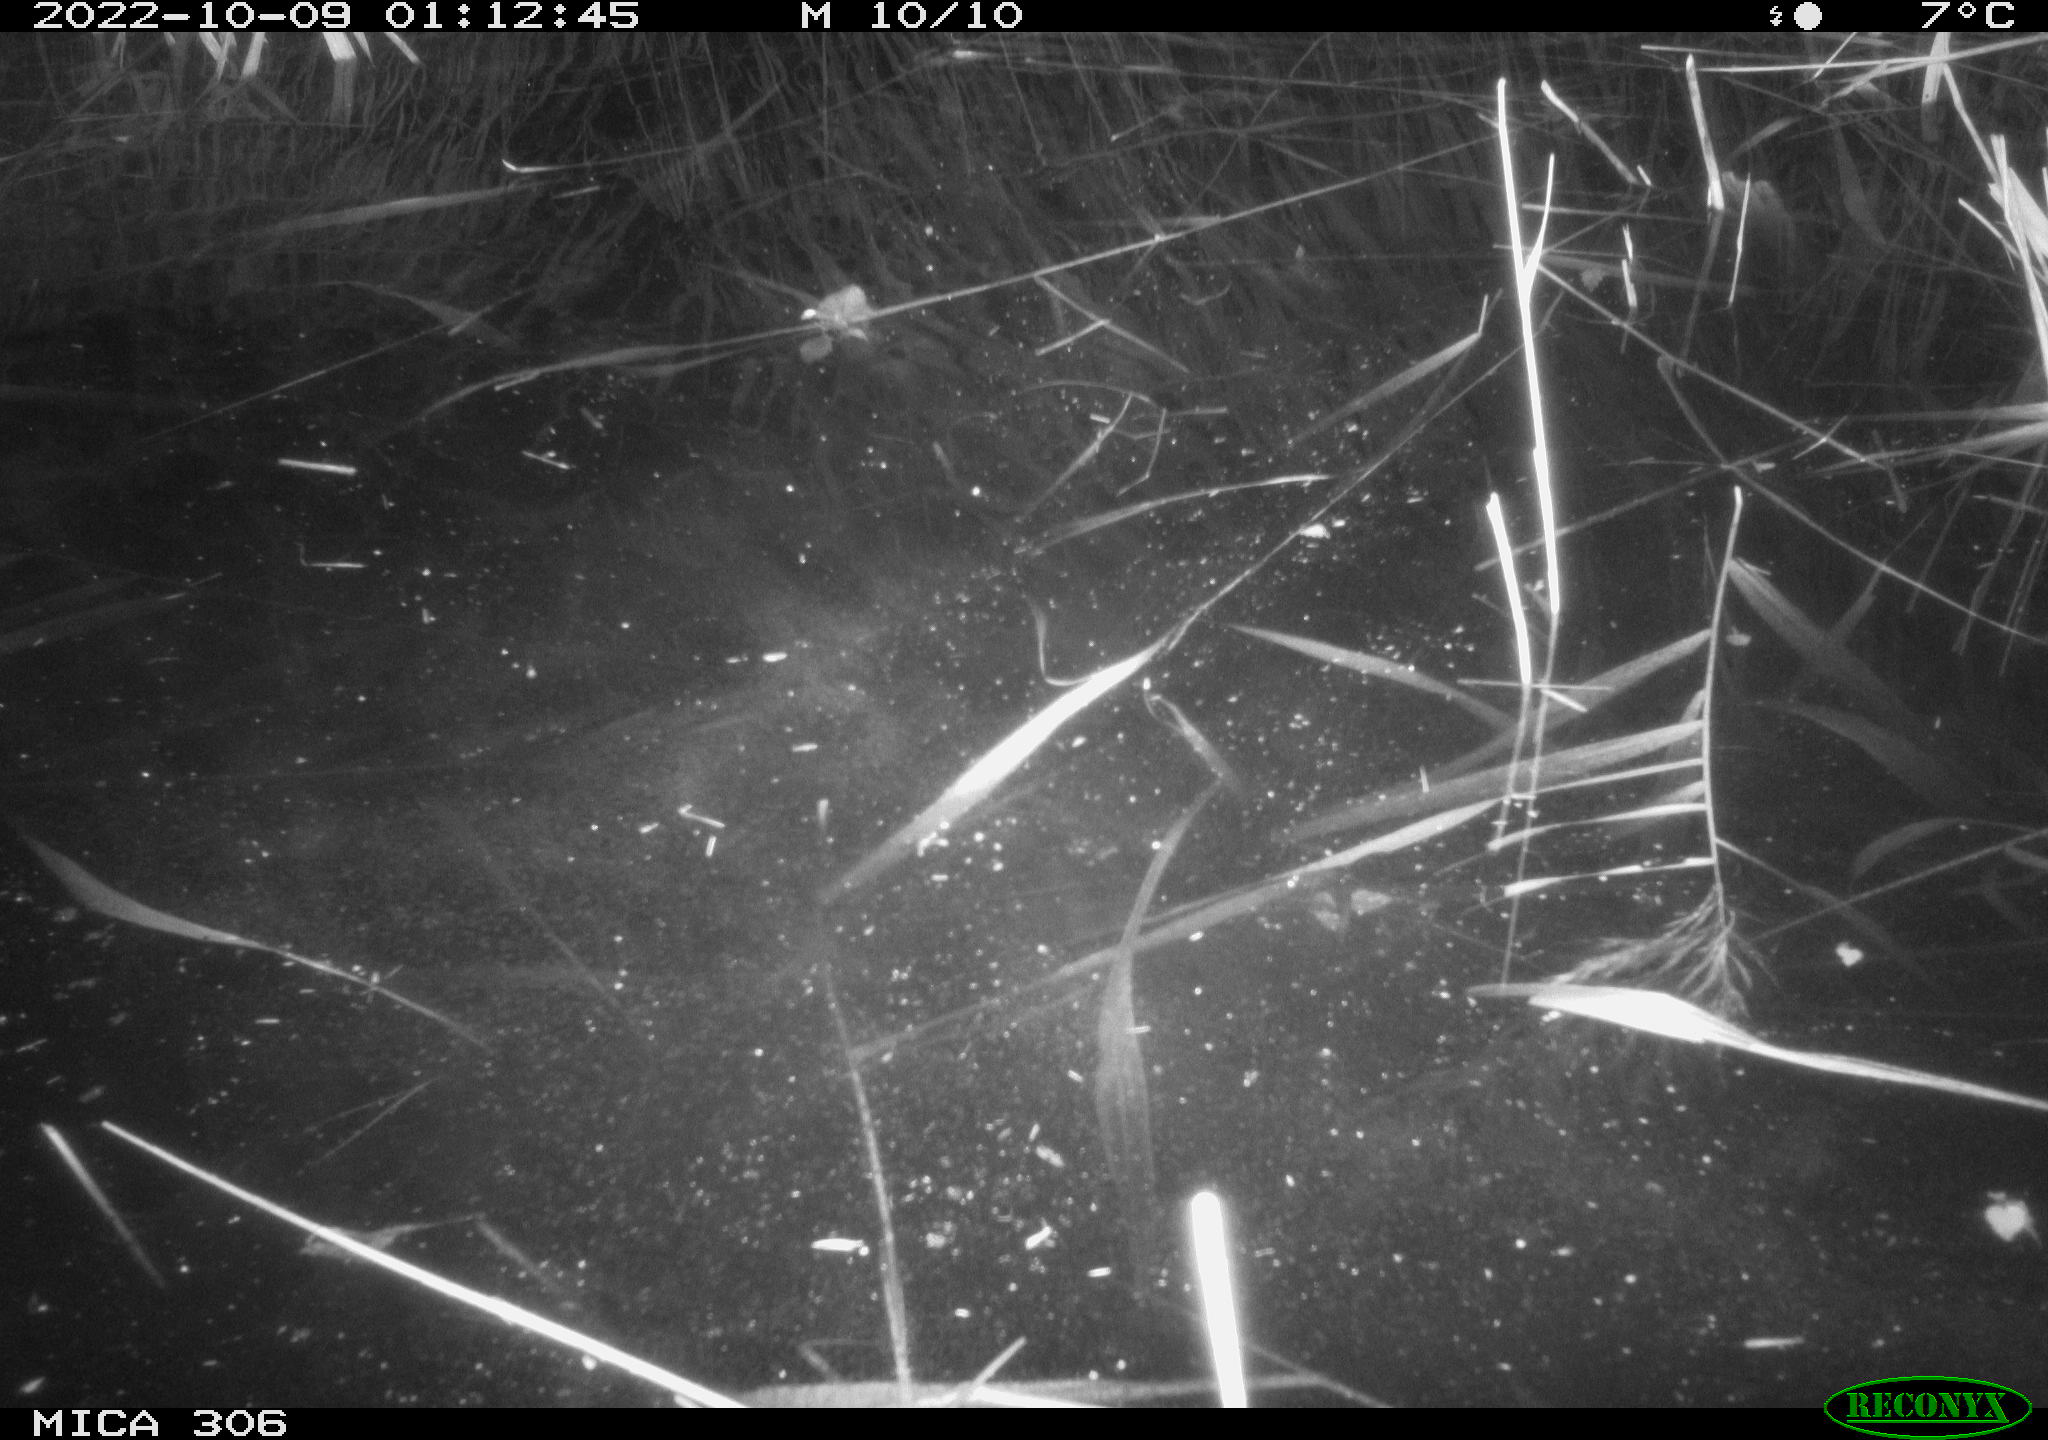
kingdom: Animalia
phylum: Chordata
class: Mammalia
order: Rodentia
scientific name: Rodentia
